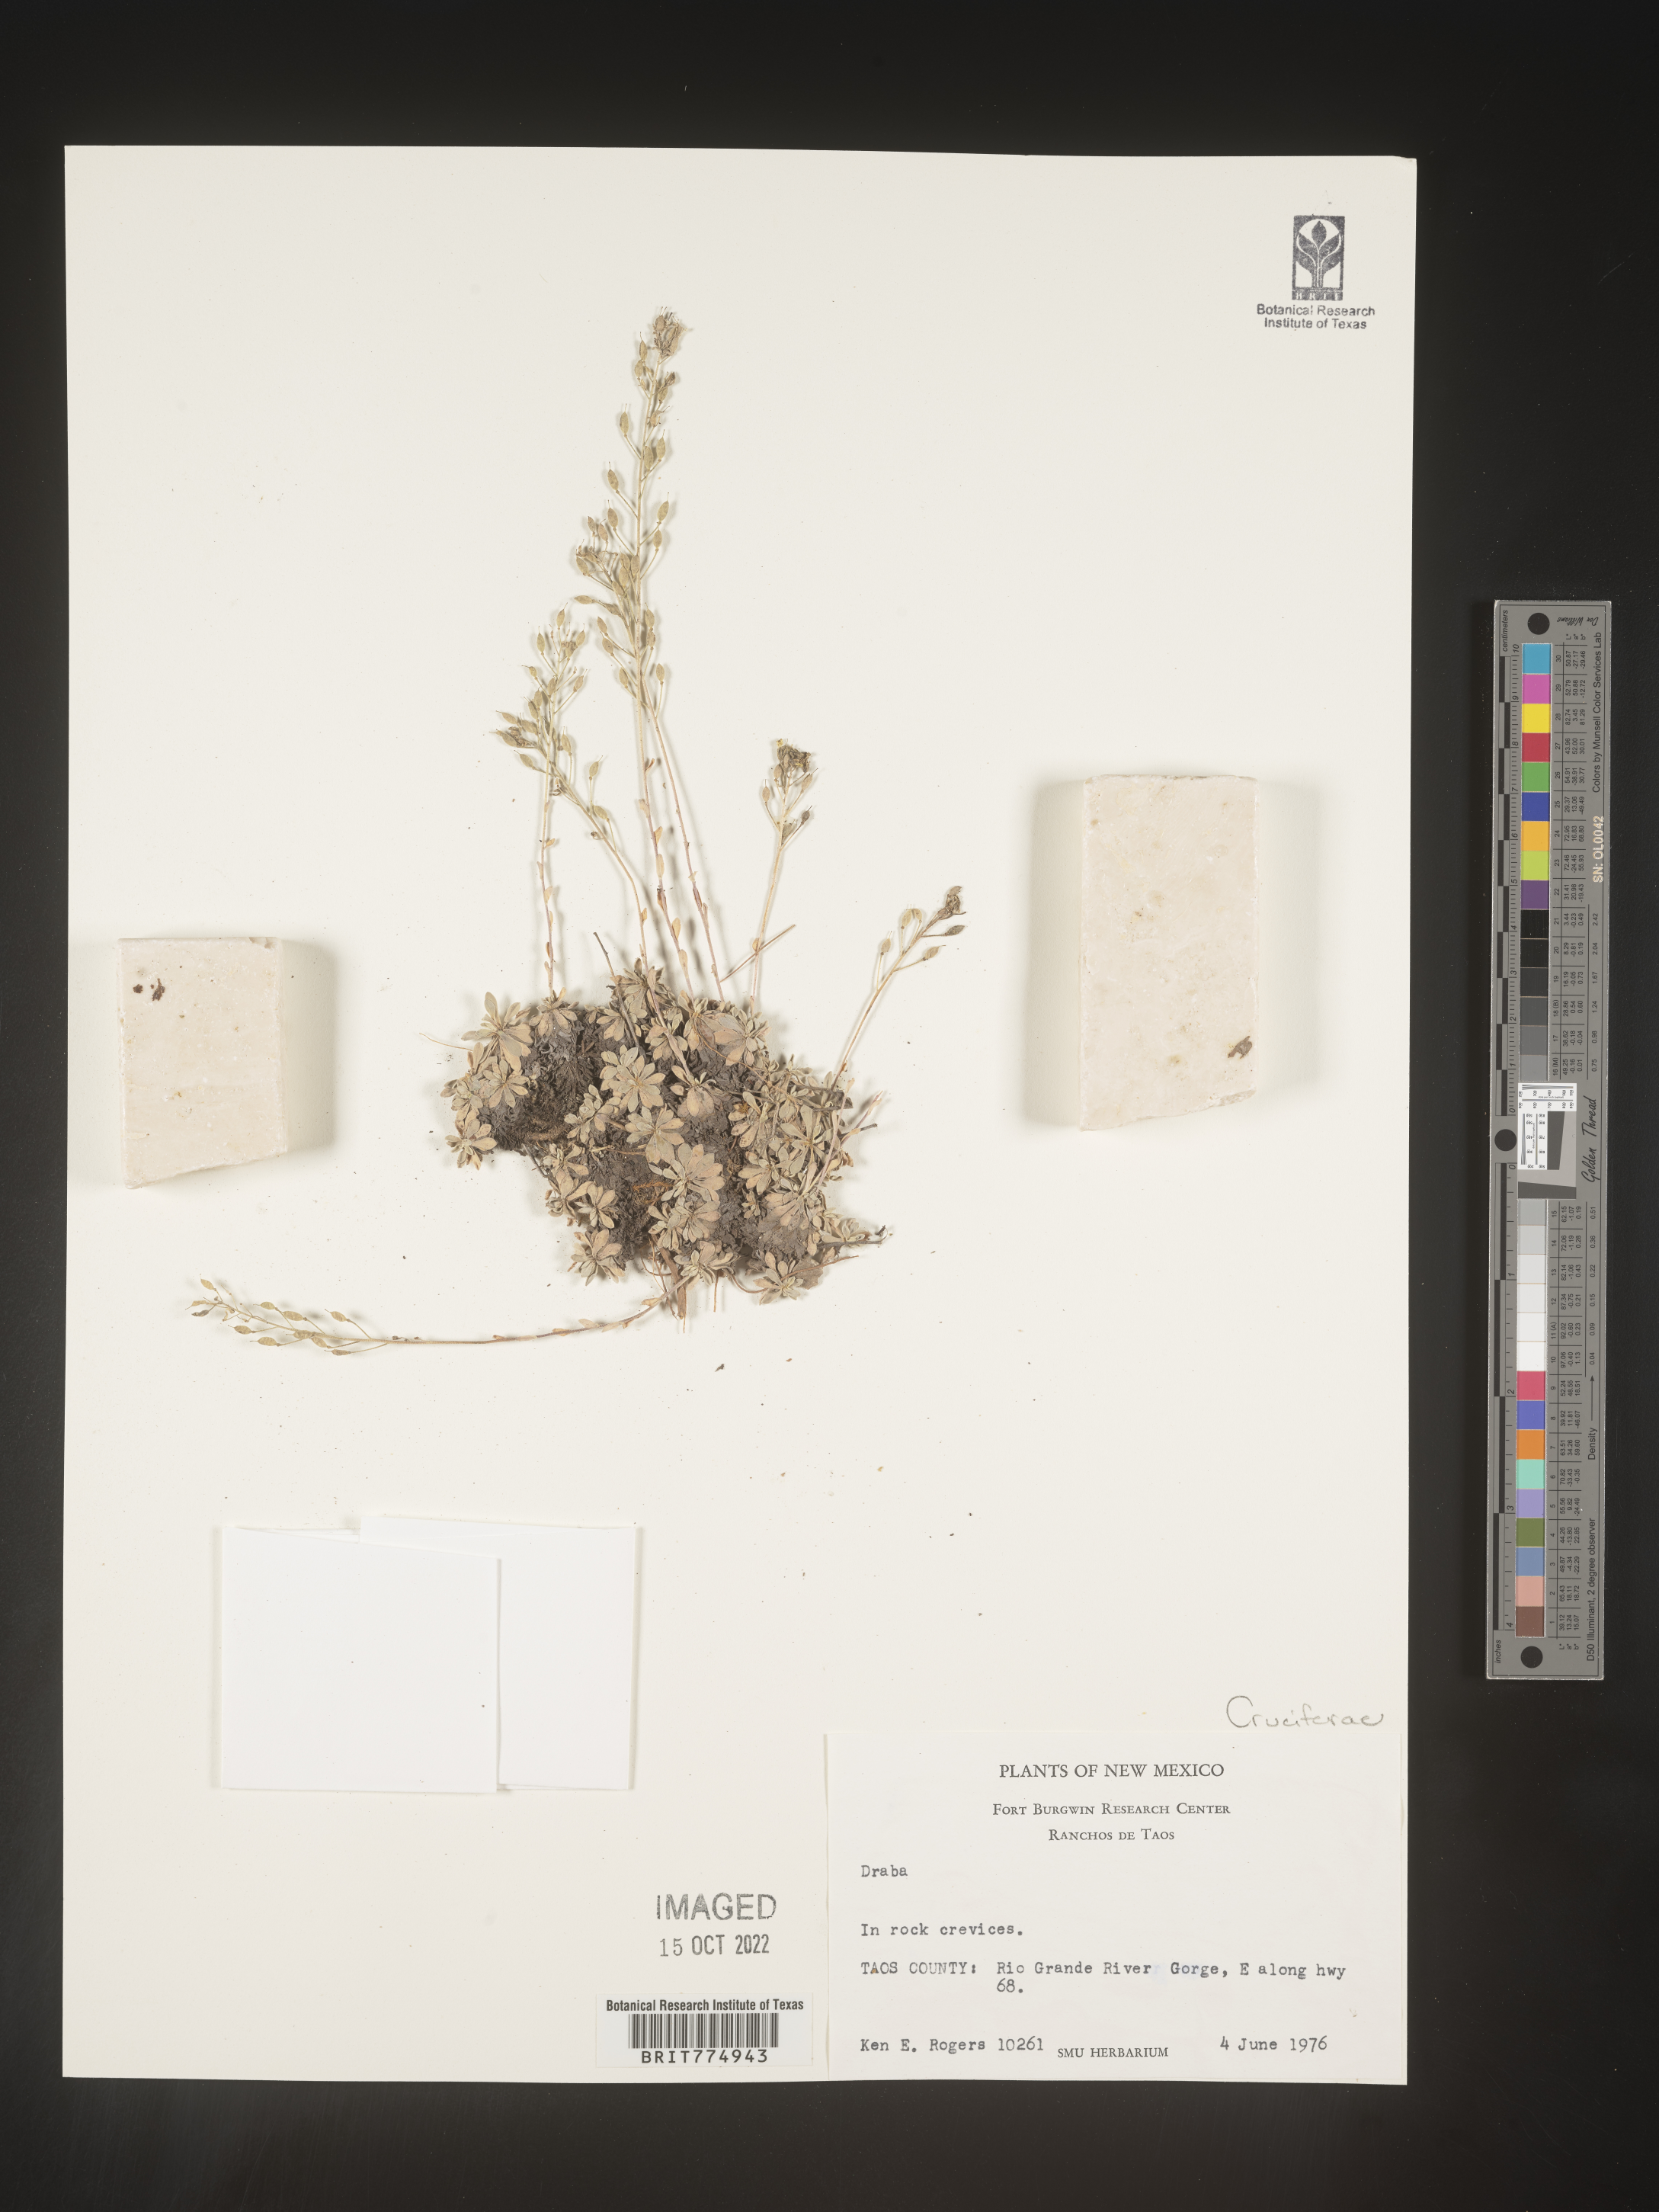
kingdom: Plantae
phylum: Tracheophyta
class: Magnoliopsida
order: Brassicales
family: Brassicaceae
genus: Draba
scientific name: Draba
